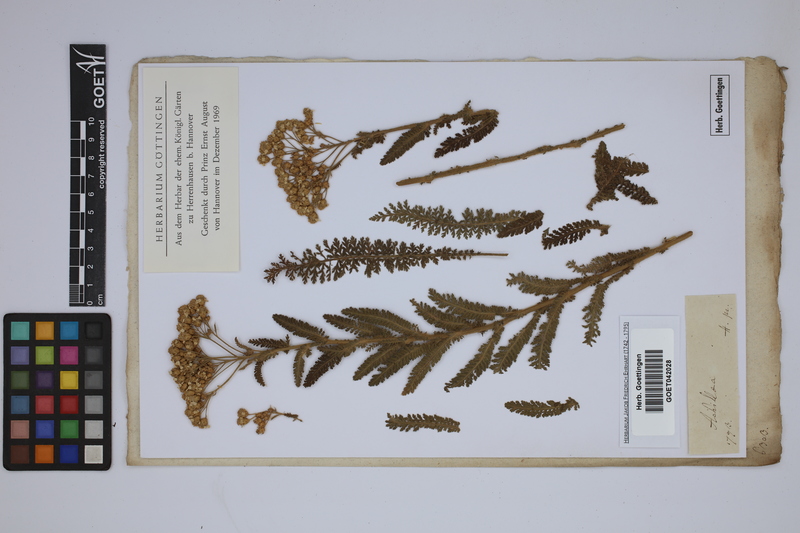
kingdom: Plantae
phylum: Tracheophyta
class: Magnoliopsida
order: Asterales
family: Asteraceae
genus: Achillea
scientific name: Achillea
